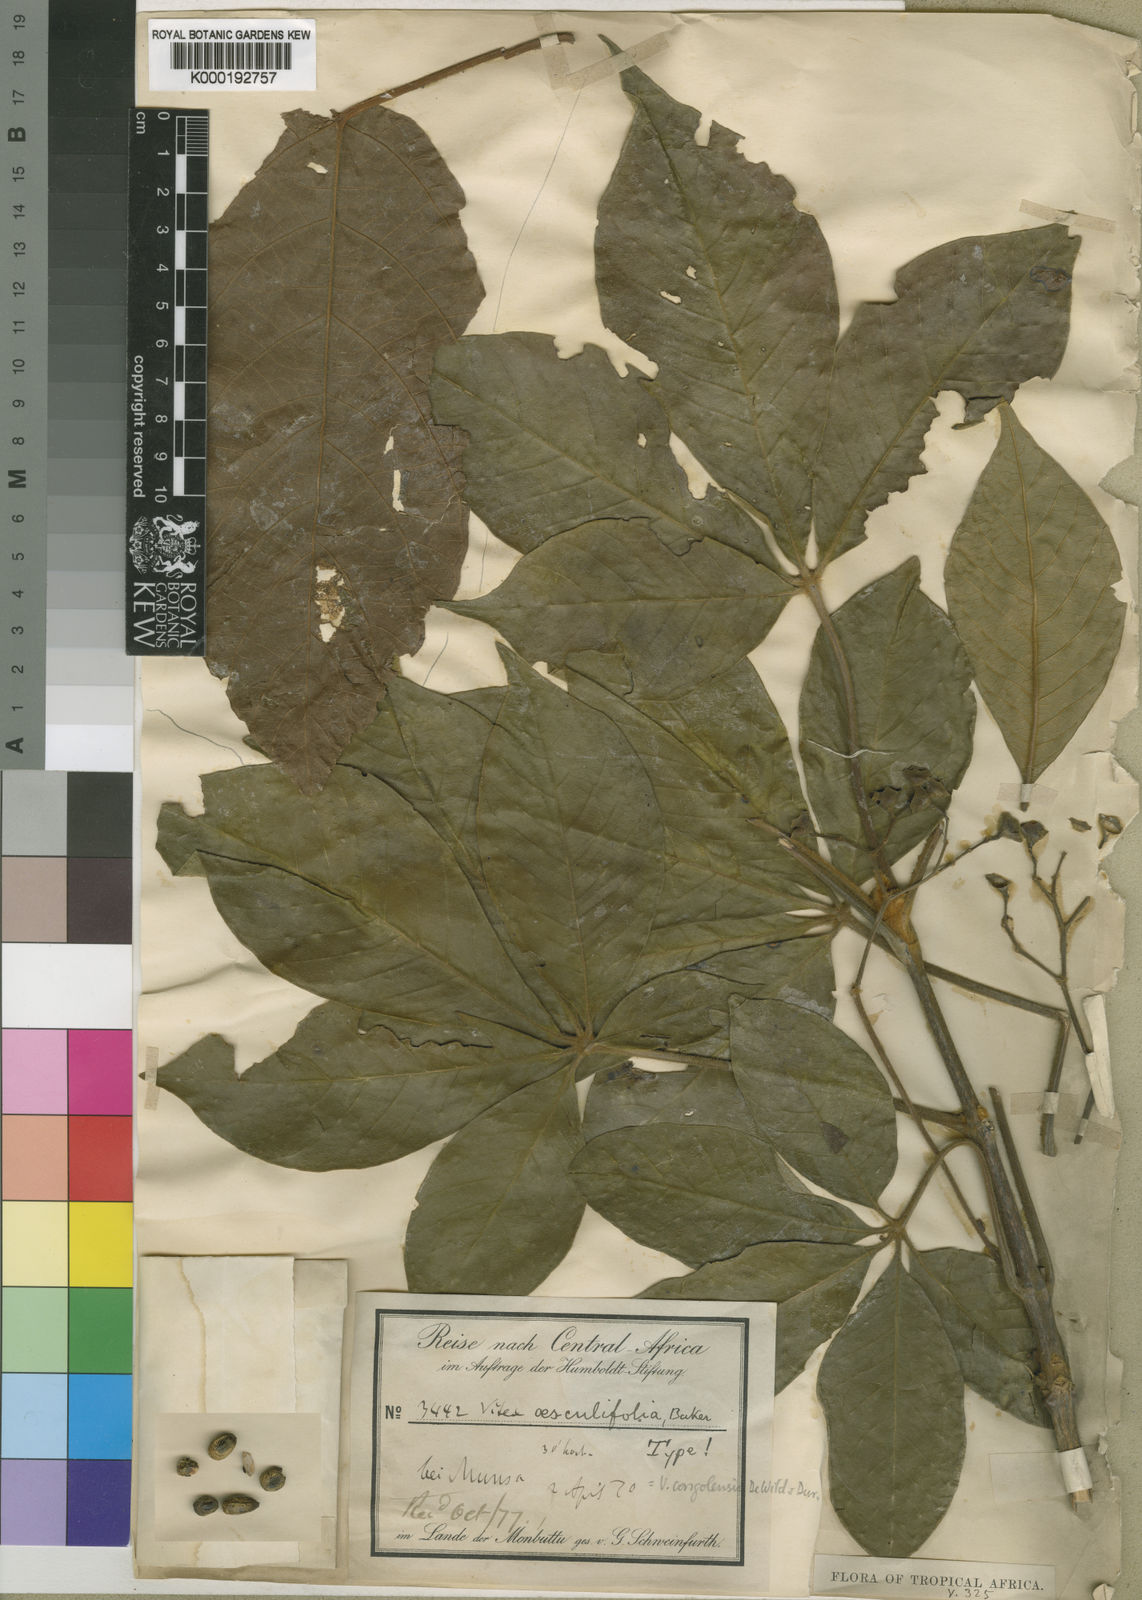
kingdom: Plantae
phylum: Tracheophyta
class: Magnoliopsida
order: Lamiales
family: Lamiaceae
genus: Vitex
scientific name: Vitex congolensis
